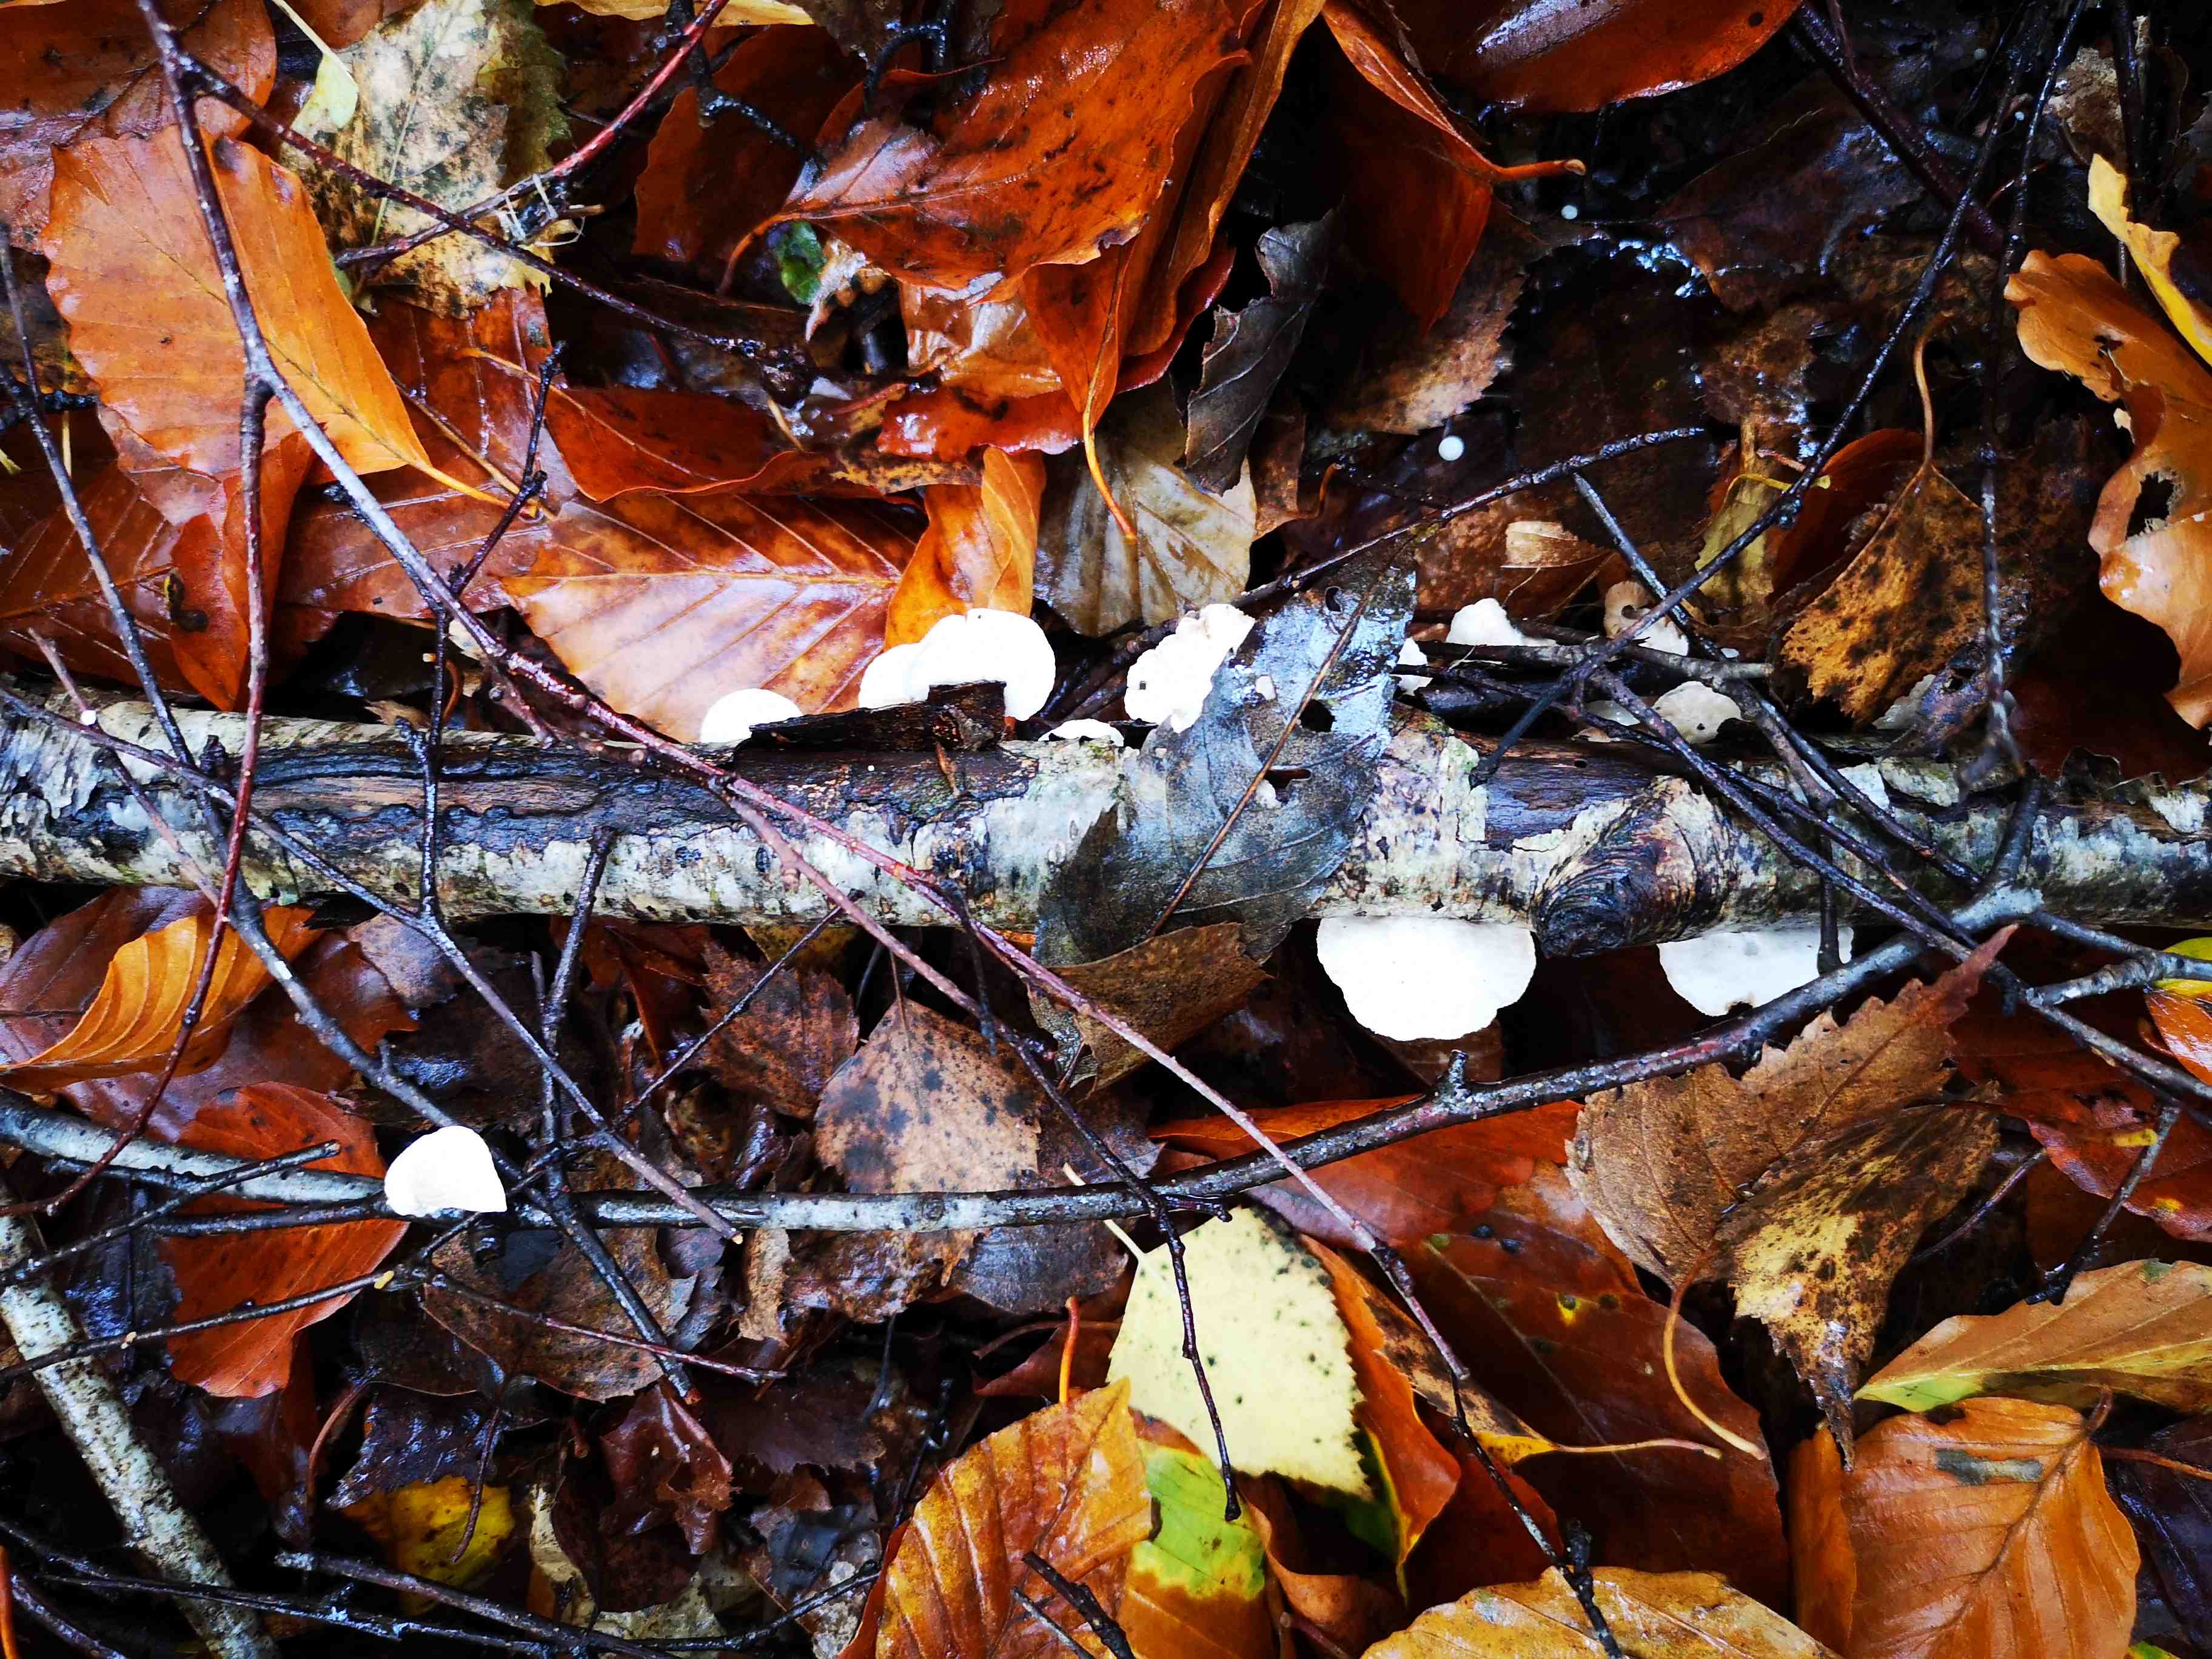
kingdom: Fungi
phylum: Basidiomycota
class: Agaricomycetes
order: Agaricales
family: Crepidotaceae
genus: Crepidotus
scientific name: Crepidotus
